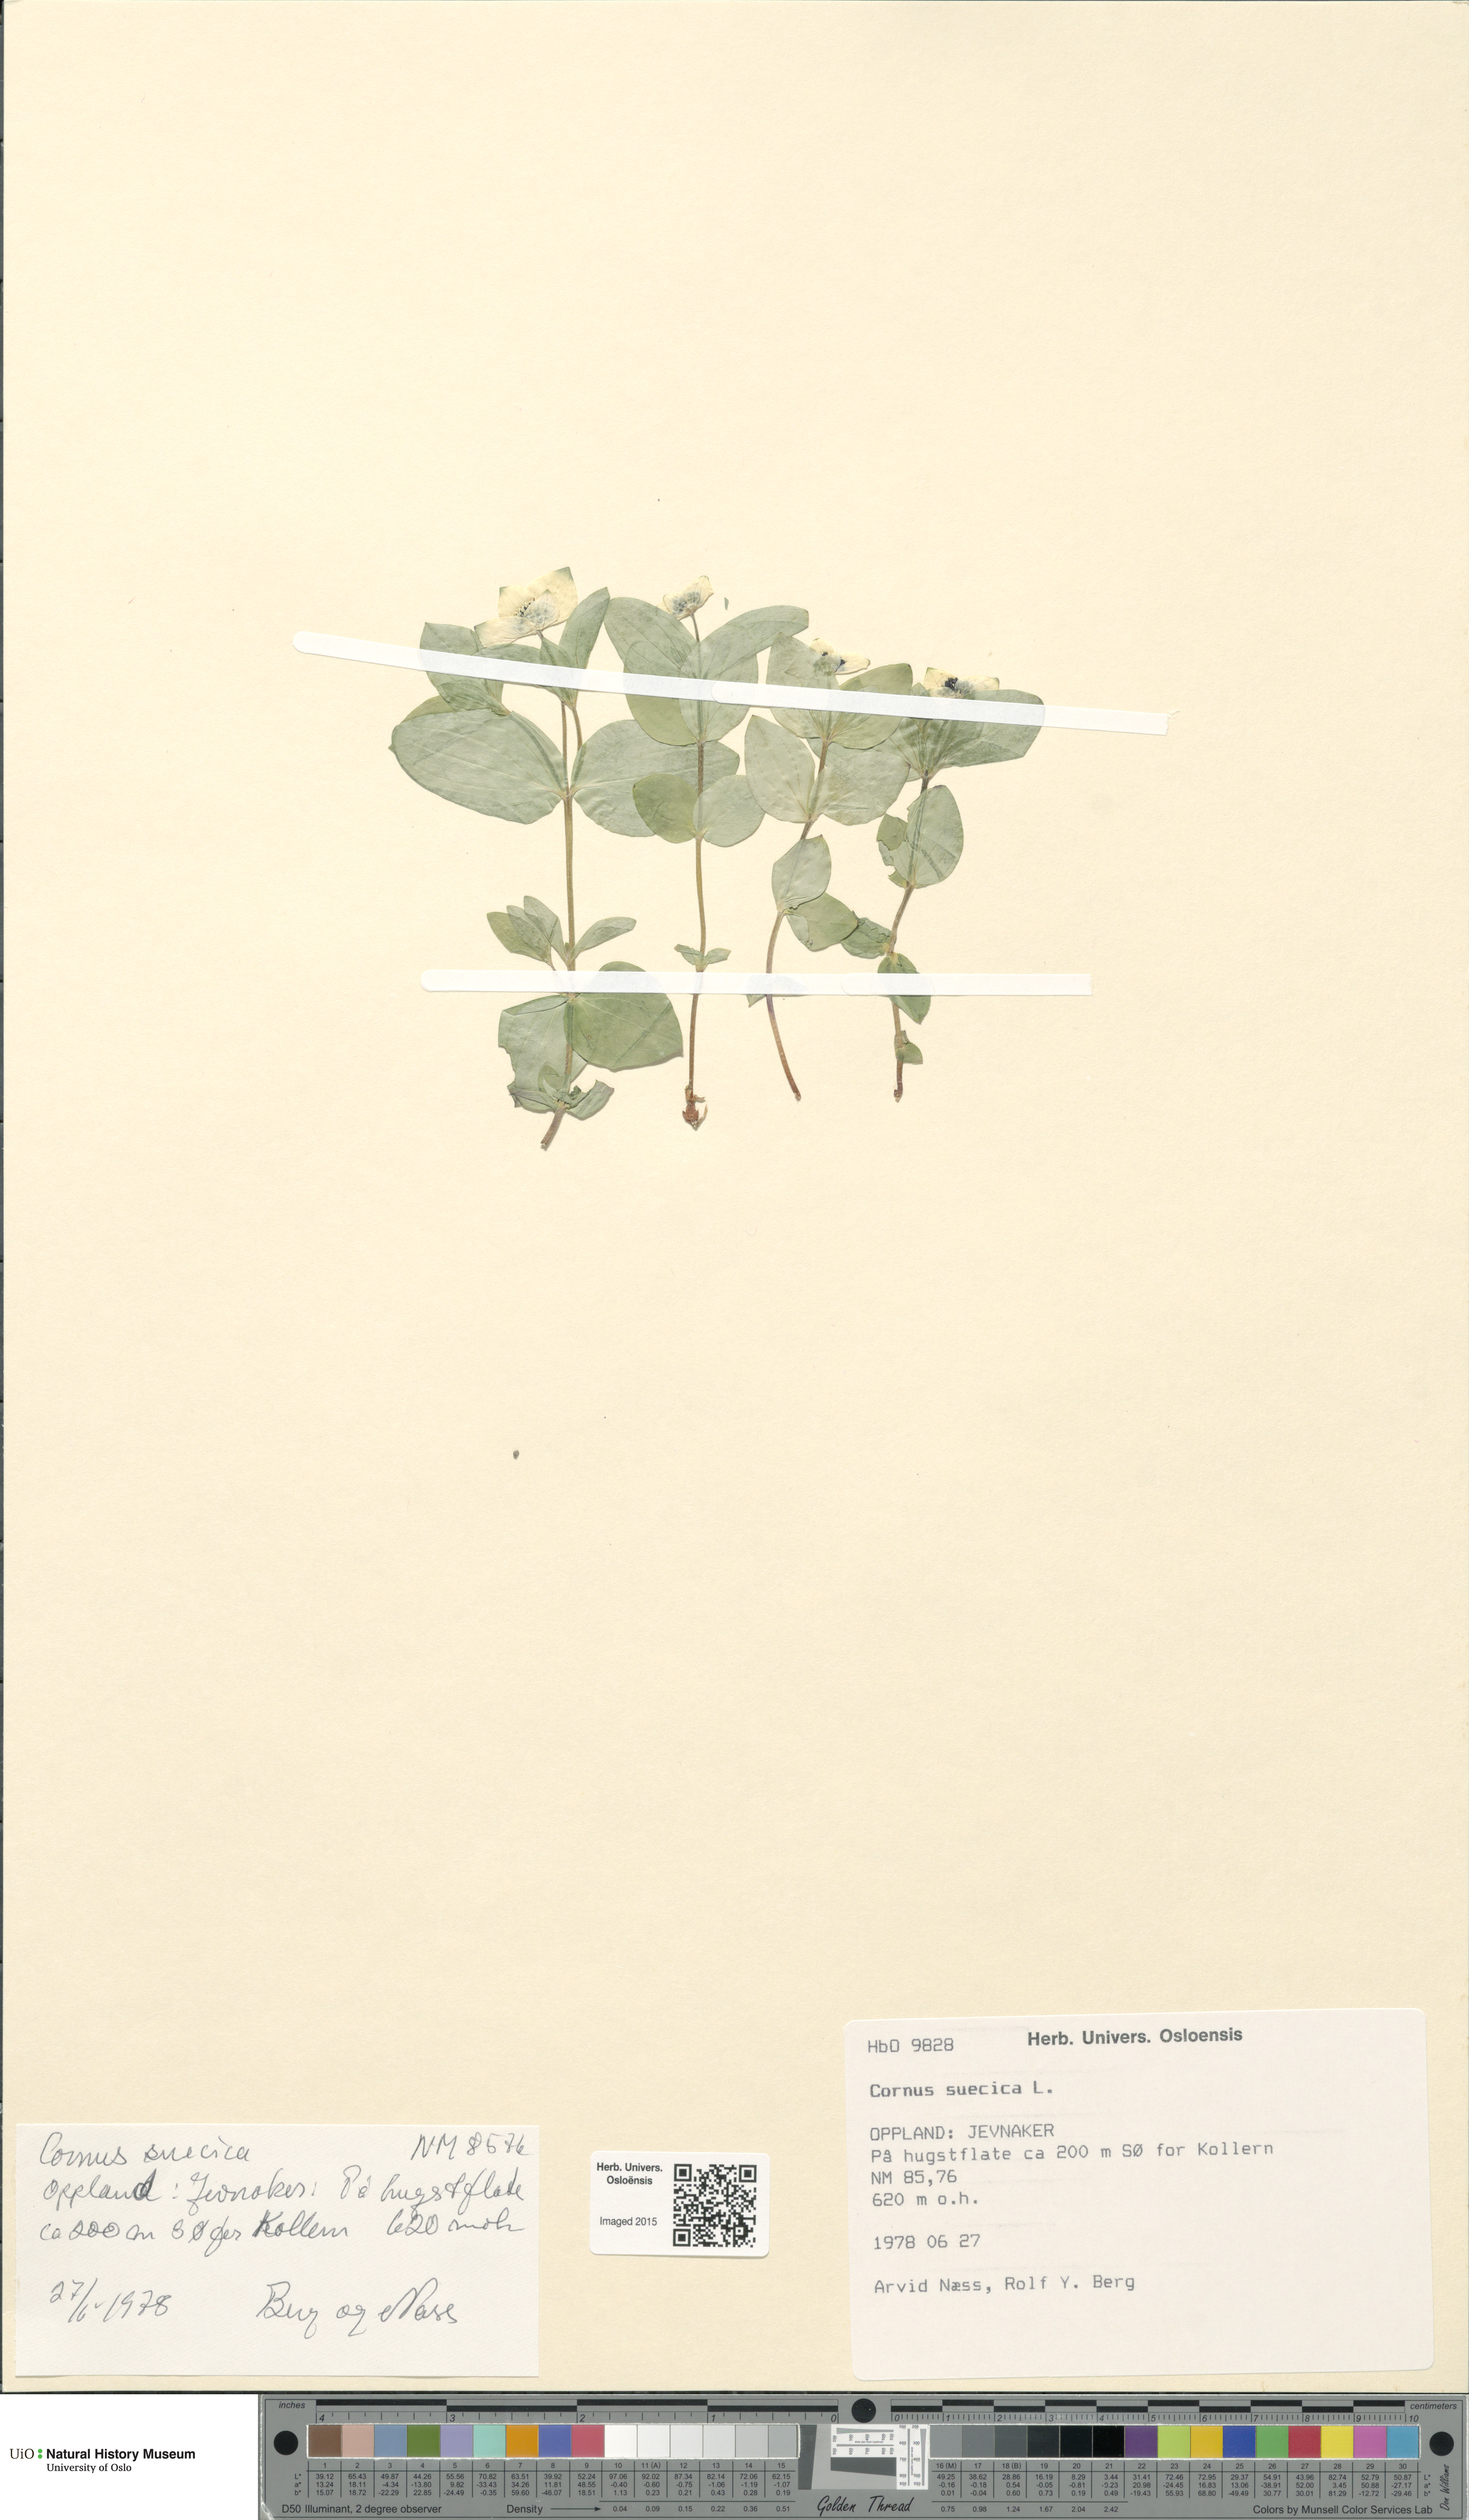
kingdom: Plantae
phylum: Tracheophyta
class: Magnoliopsida
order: Cornales
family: Cornaceae
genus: Cornus
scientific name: Cornus suecica
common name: Dwarf cornel
